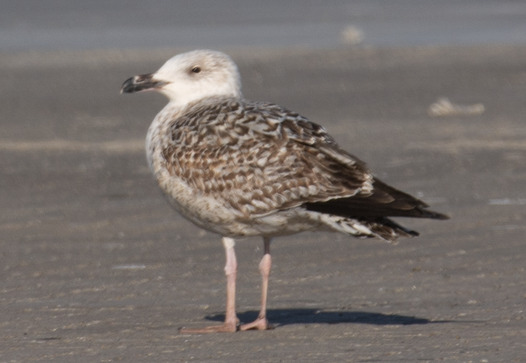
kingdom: Animalia
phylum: Chordata
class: Aves
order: Charadriiformes
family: Laridae
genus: Larus
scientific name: Larus marinus
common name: Svartbag
